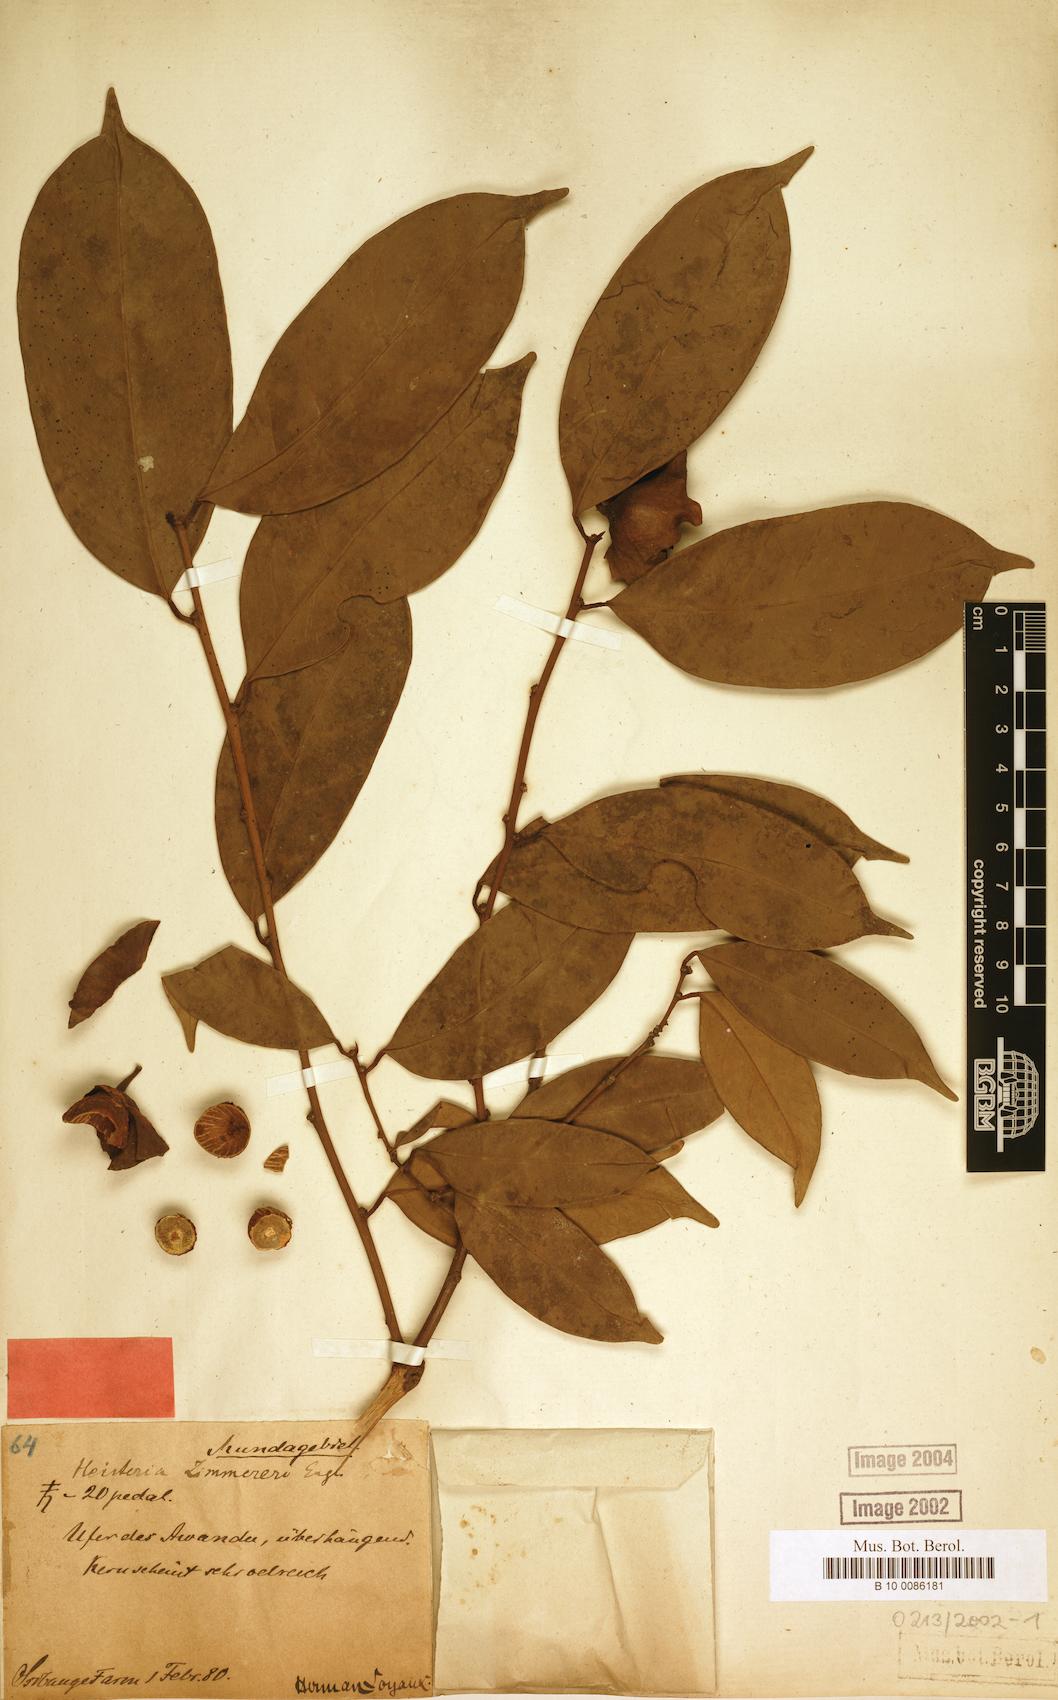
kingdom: Plantae
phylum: Tracheophyta
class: Magnoliopsida
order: Santalales
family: Erythropalaceae
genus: Heisteria
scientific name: Heisteria zimmereri
